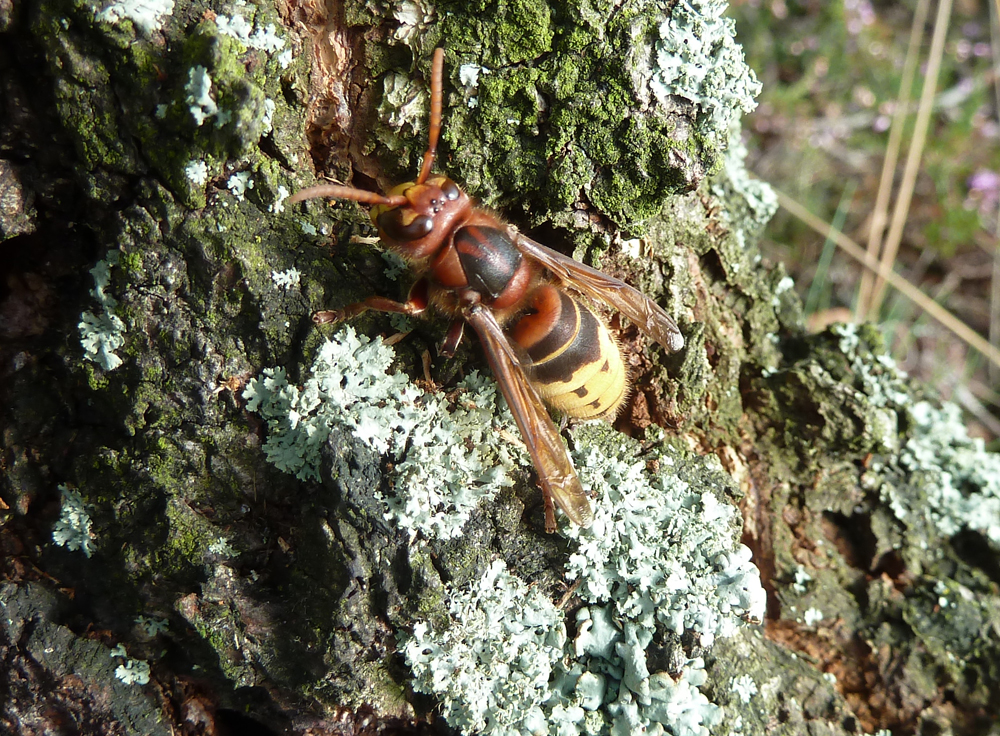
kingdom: Animalia
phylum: Arthropoda
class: Insecta
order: Hymenoptera
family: Vespidae
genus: Vespa
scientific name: Vespa crabro
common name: Hornet
